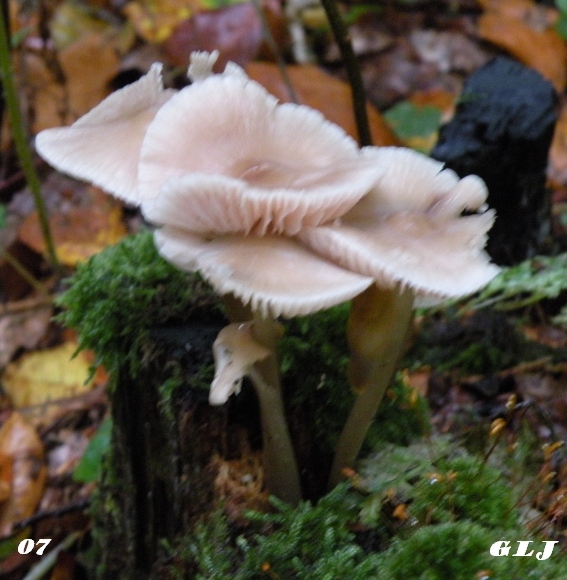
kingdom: Fungi
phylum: Basidiomycota
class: Agaricomycetes
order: Agaricales
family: Mycenaceae
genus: Mycena
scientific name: Mycena galericulata
